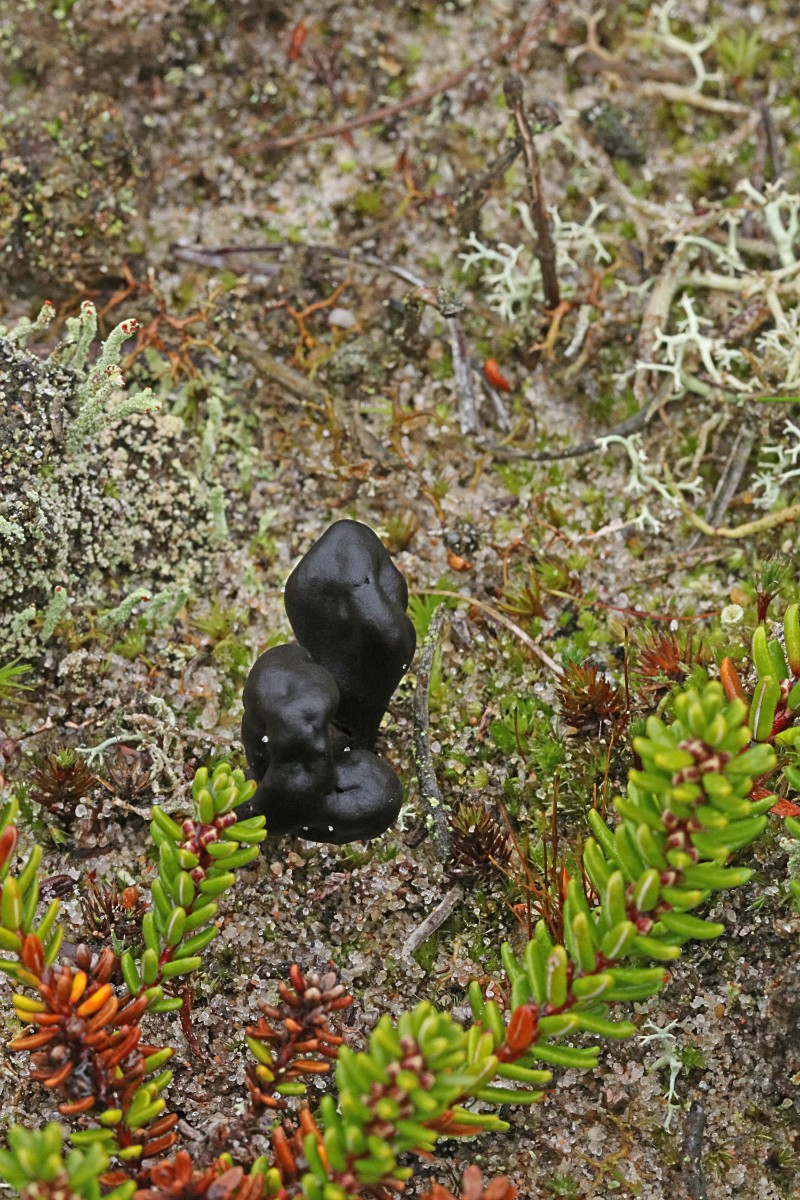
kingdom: Fungi
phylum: Ascomycota
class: Geoglossomycetes
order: Geoglossales
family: Geoglossaceae
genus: Sabuloglossum
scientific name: Sabuloglossum arenarium
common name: klit-jordtunge
